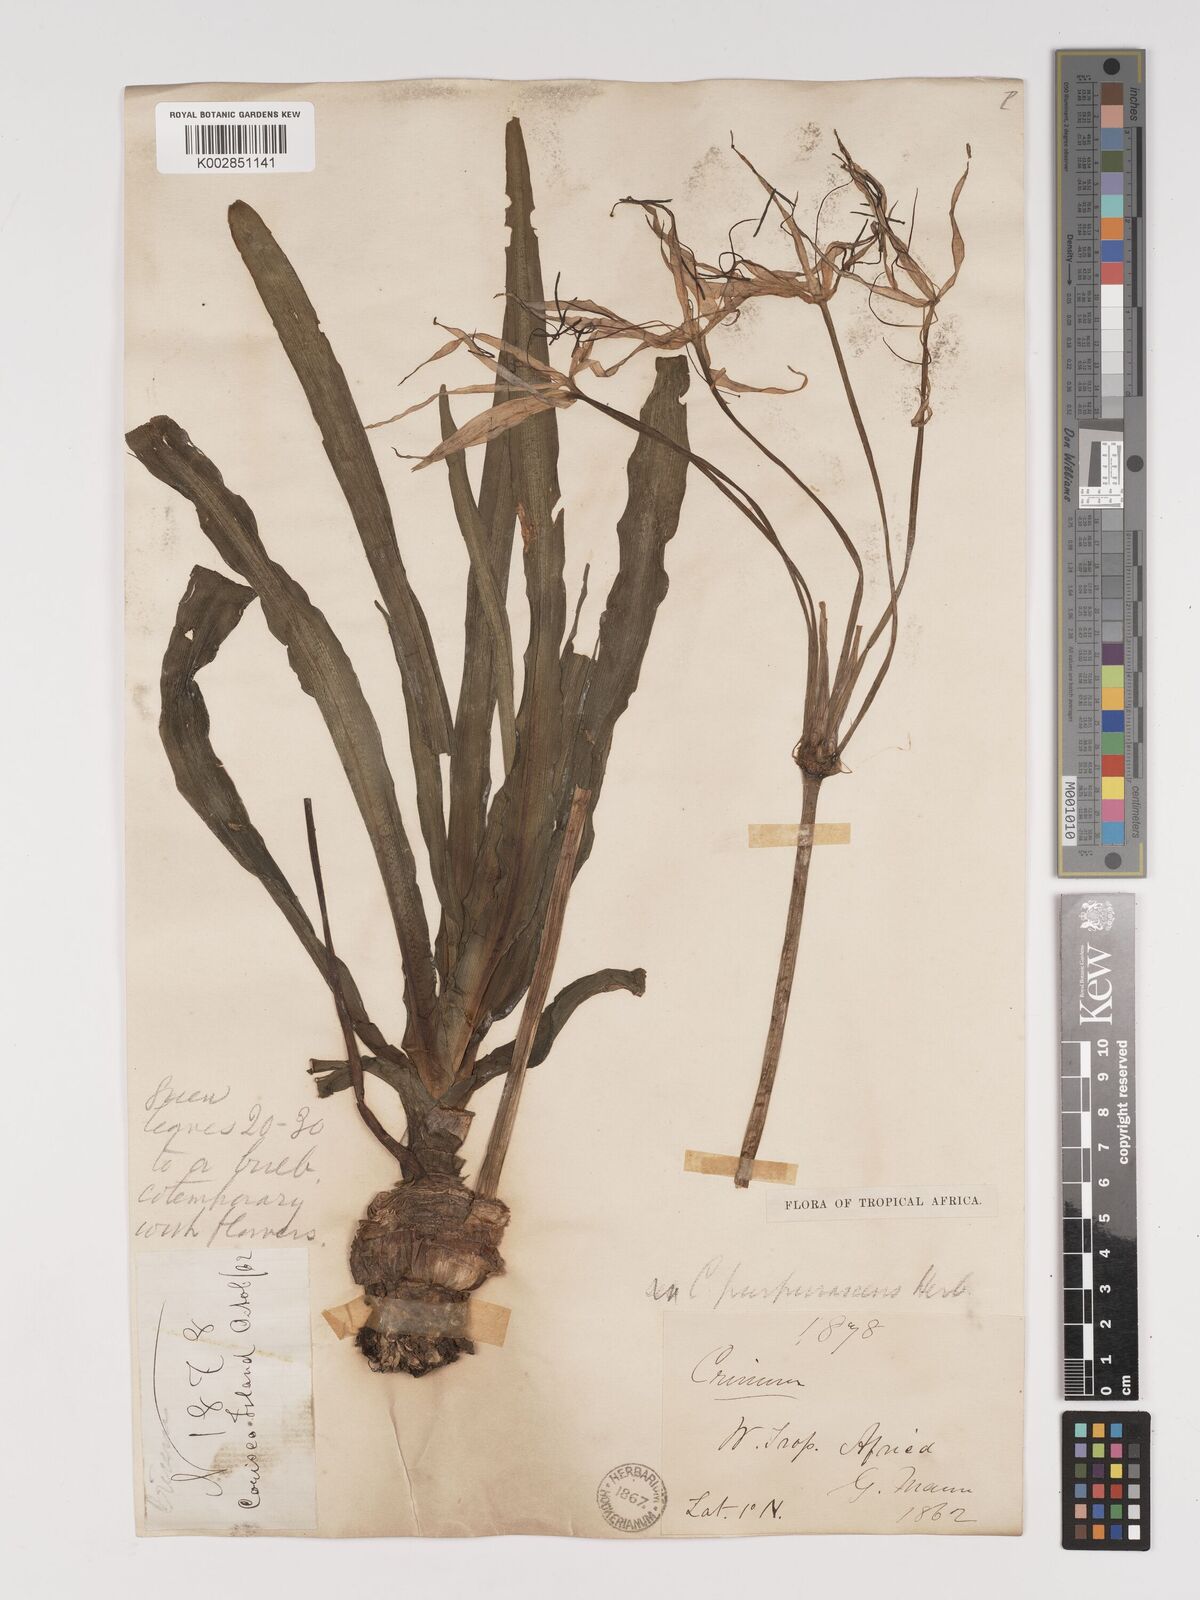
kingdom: Plantae
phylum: Tracheophyta
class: Liliopsida
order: Asparagales
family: Amaryllidaceae
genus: Crinum
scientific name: Crinum purpurascens
